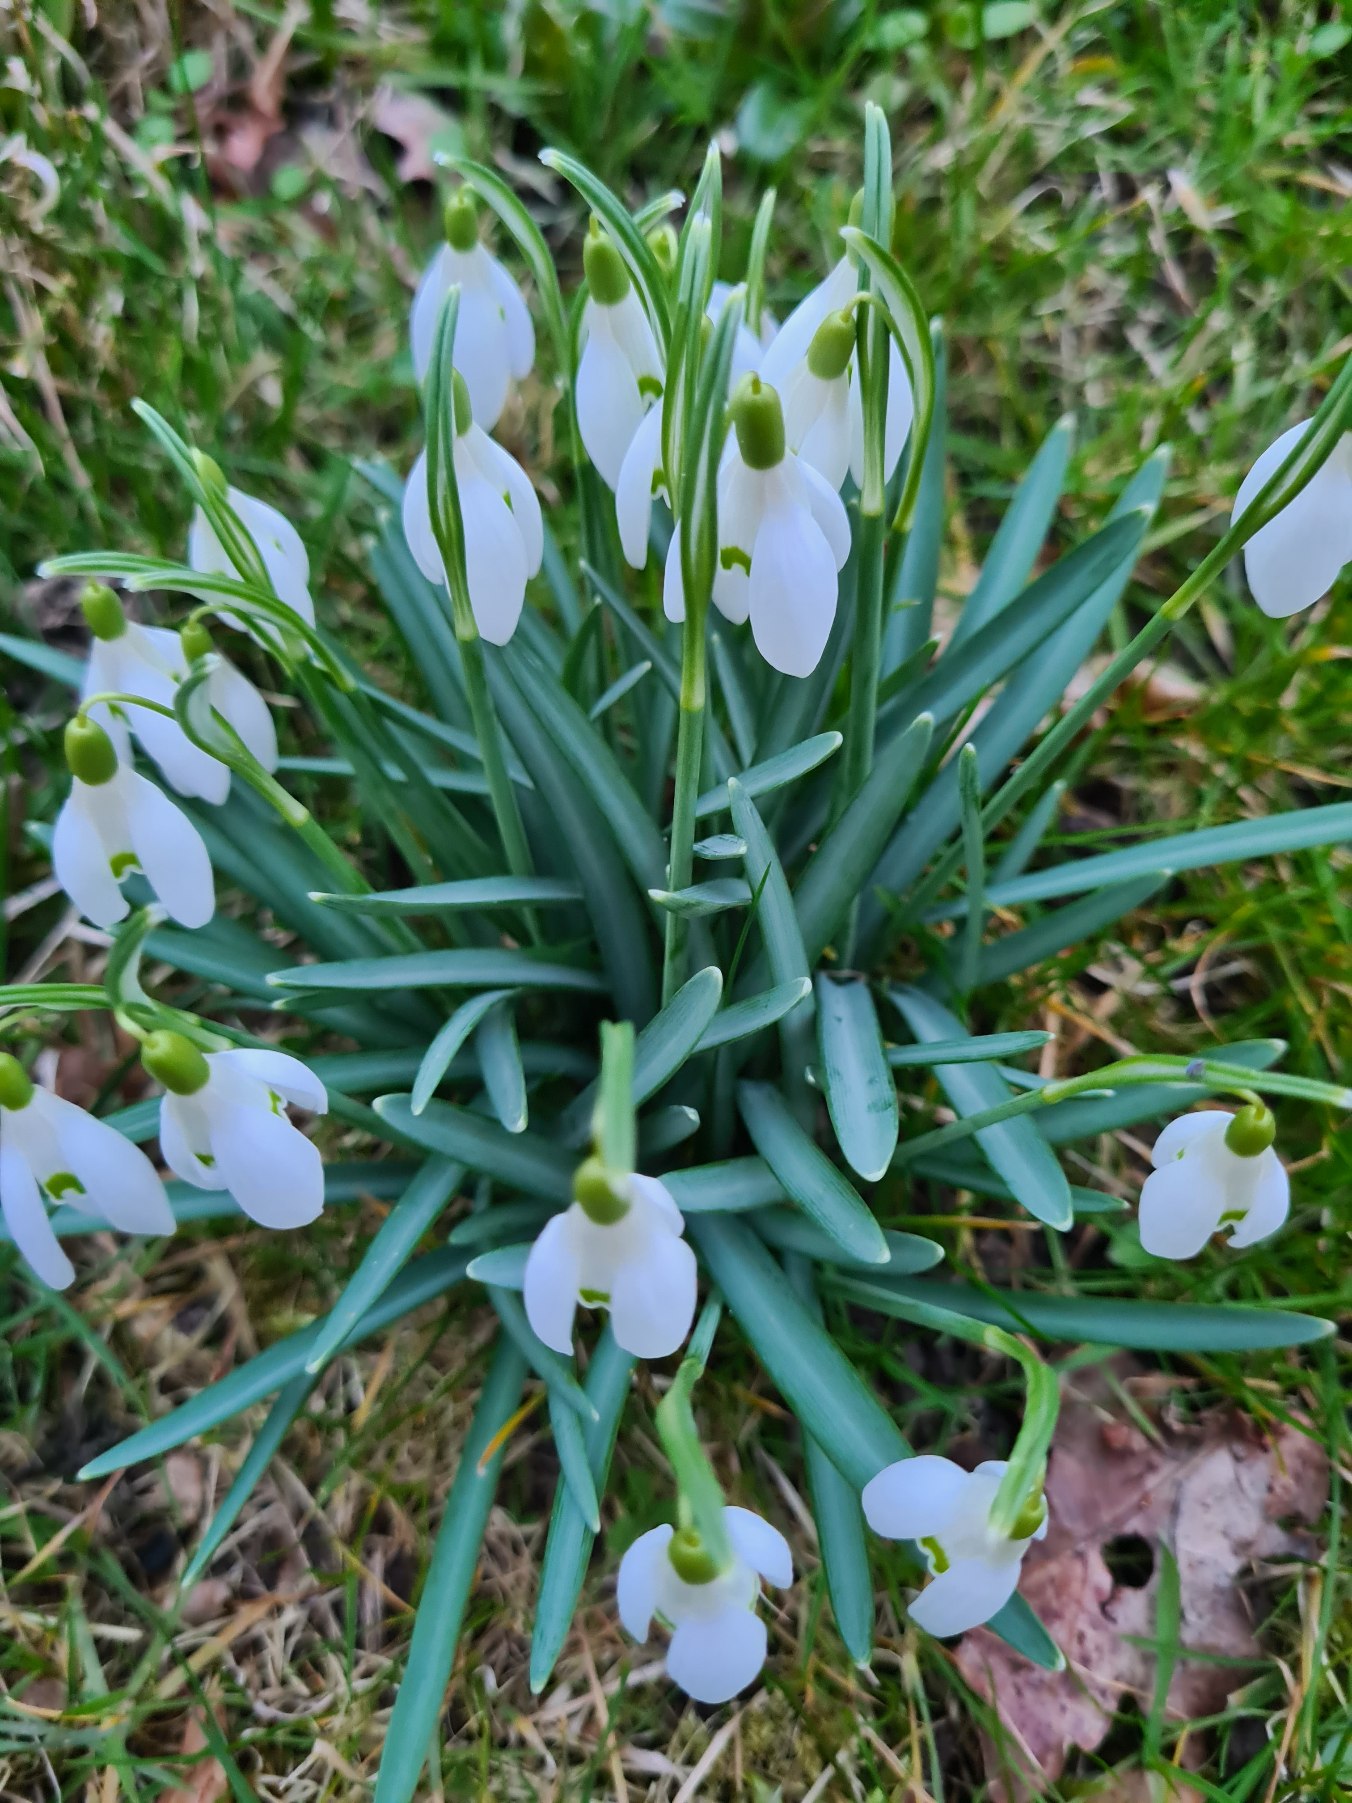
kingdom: Plantae
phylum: Tracheophyta
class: Liliopsida
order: Asparagales
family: Amaryllidaceae
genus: Galanthus
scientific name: Galanthus nivalis
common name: Vintergæk
